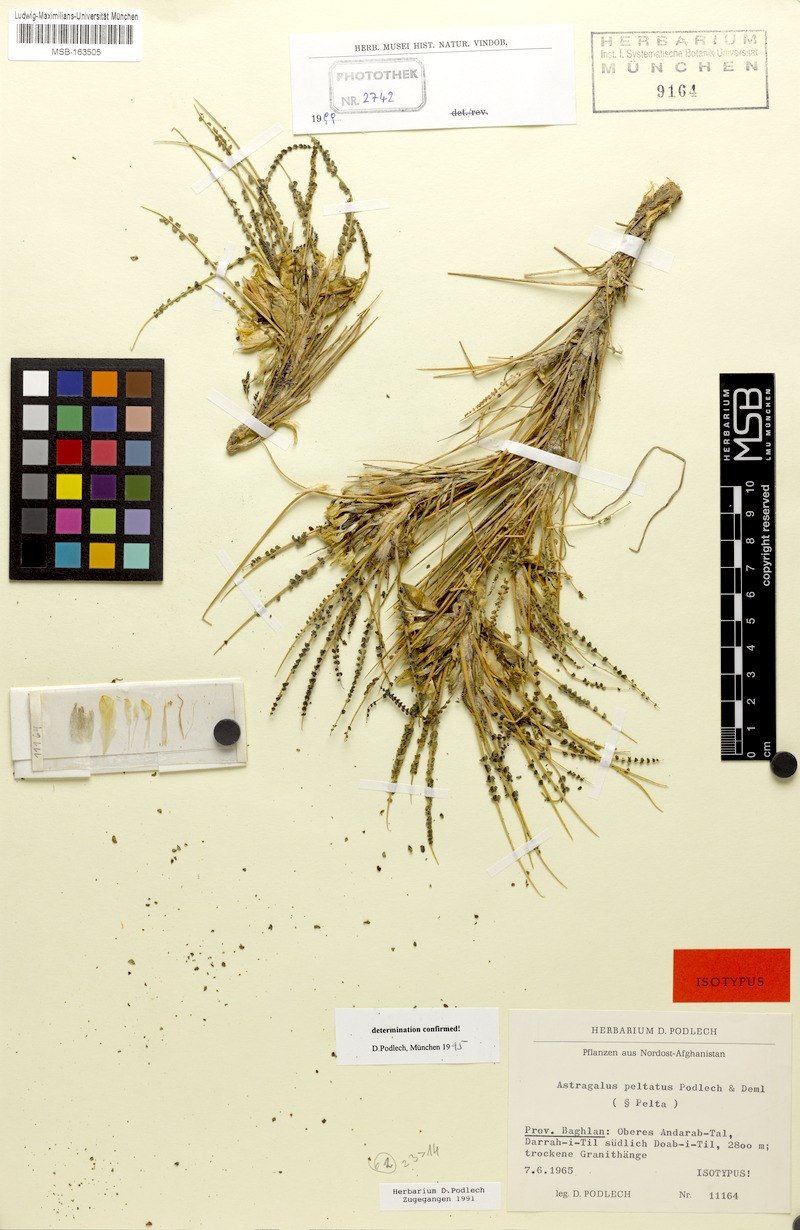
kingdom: Plantae
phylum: Tracheophyta
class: Magnoliopsida
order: Fabales
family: Fabaceae
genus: Astragalus
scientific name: Astragalus peltatus
